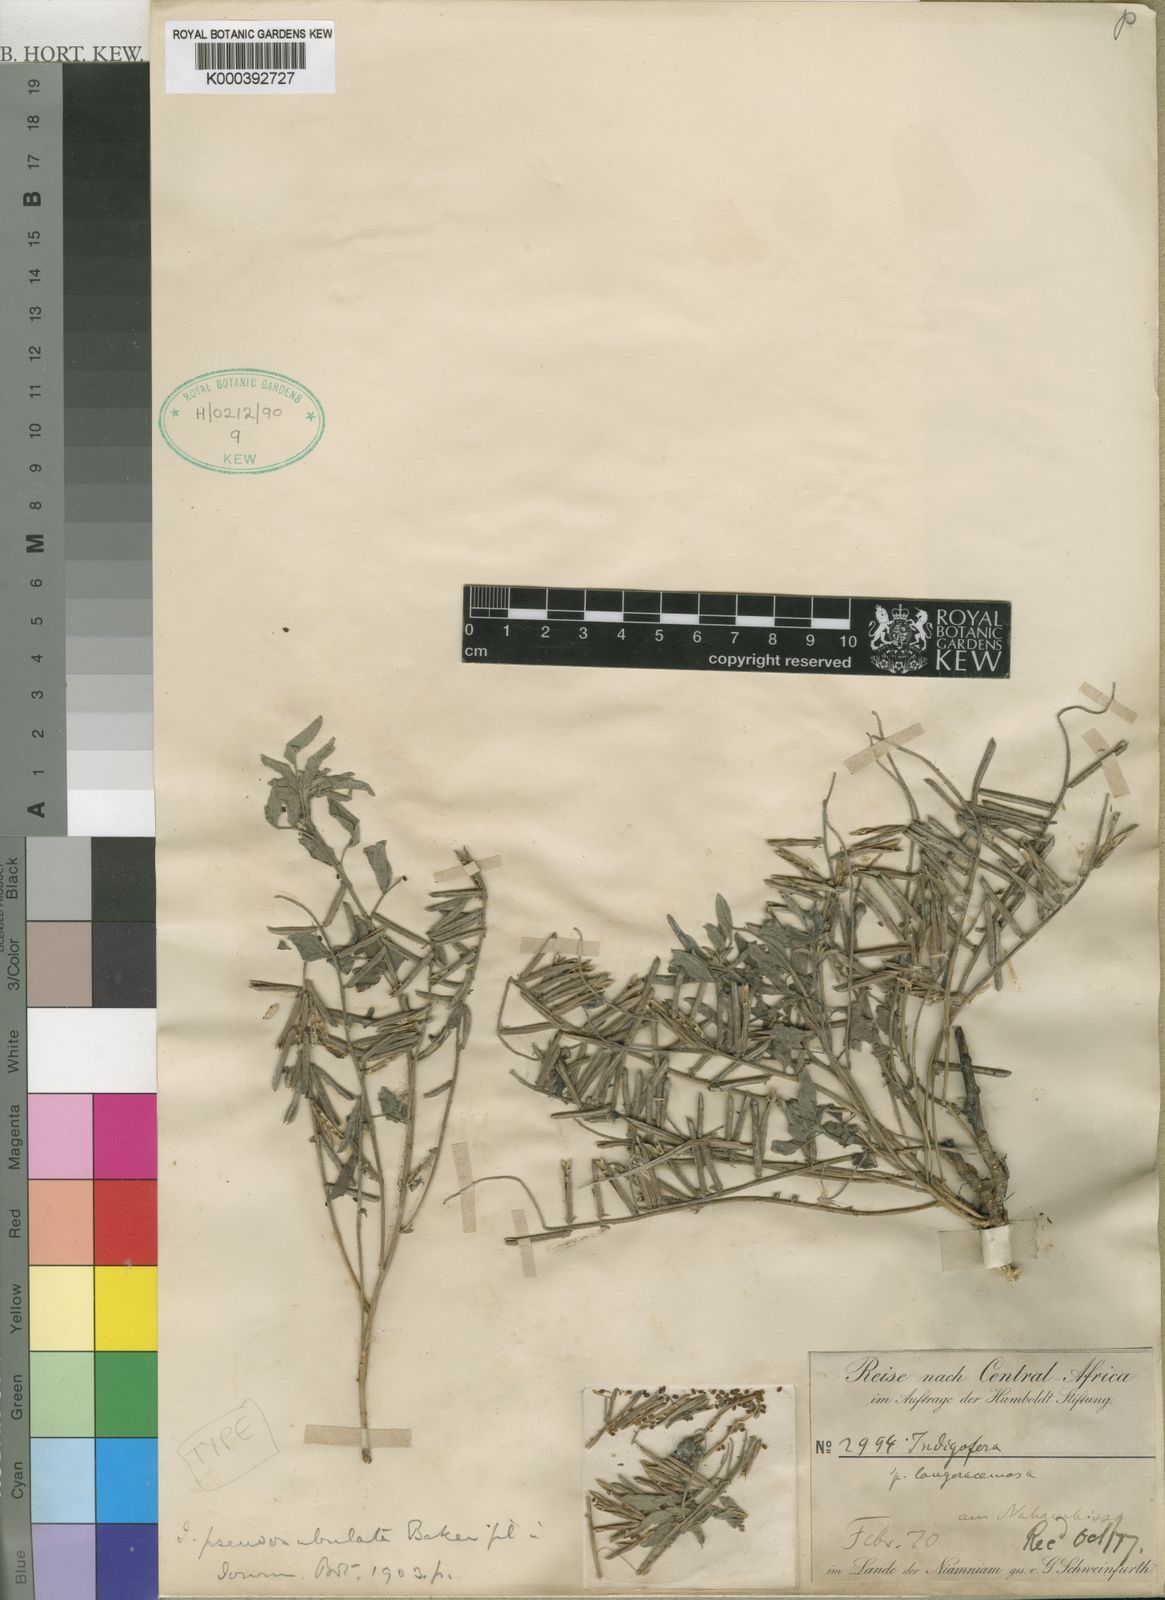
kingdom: Plantae
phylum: Tracheophyta
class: Magnoliopsida
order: Fabales
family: Fabaceae
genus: Indigofera
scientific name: Indigofera pseudosubulata
